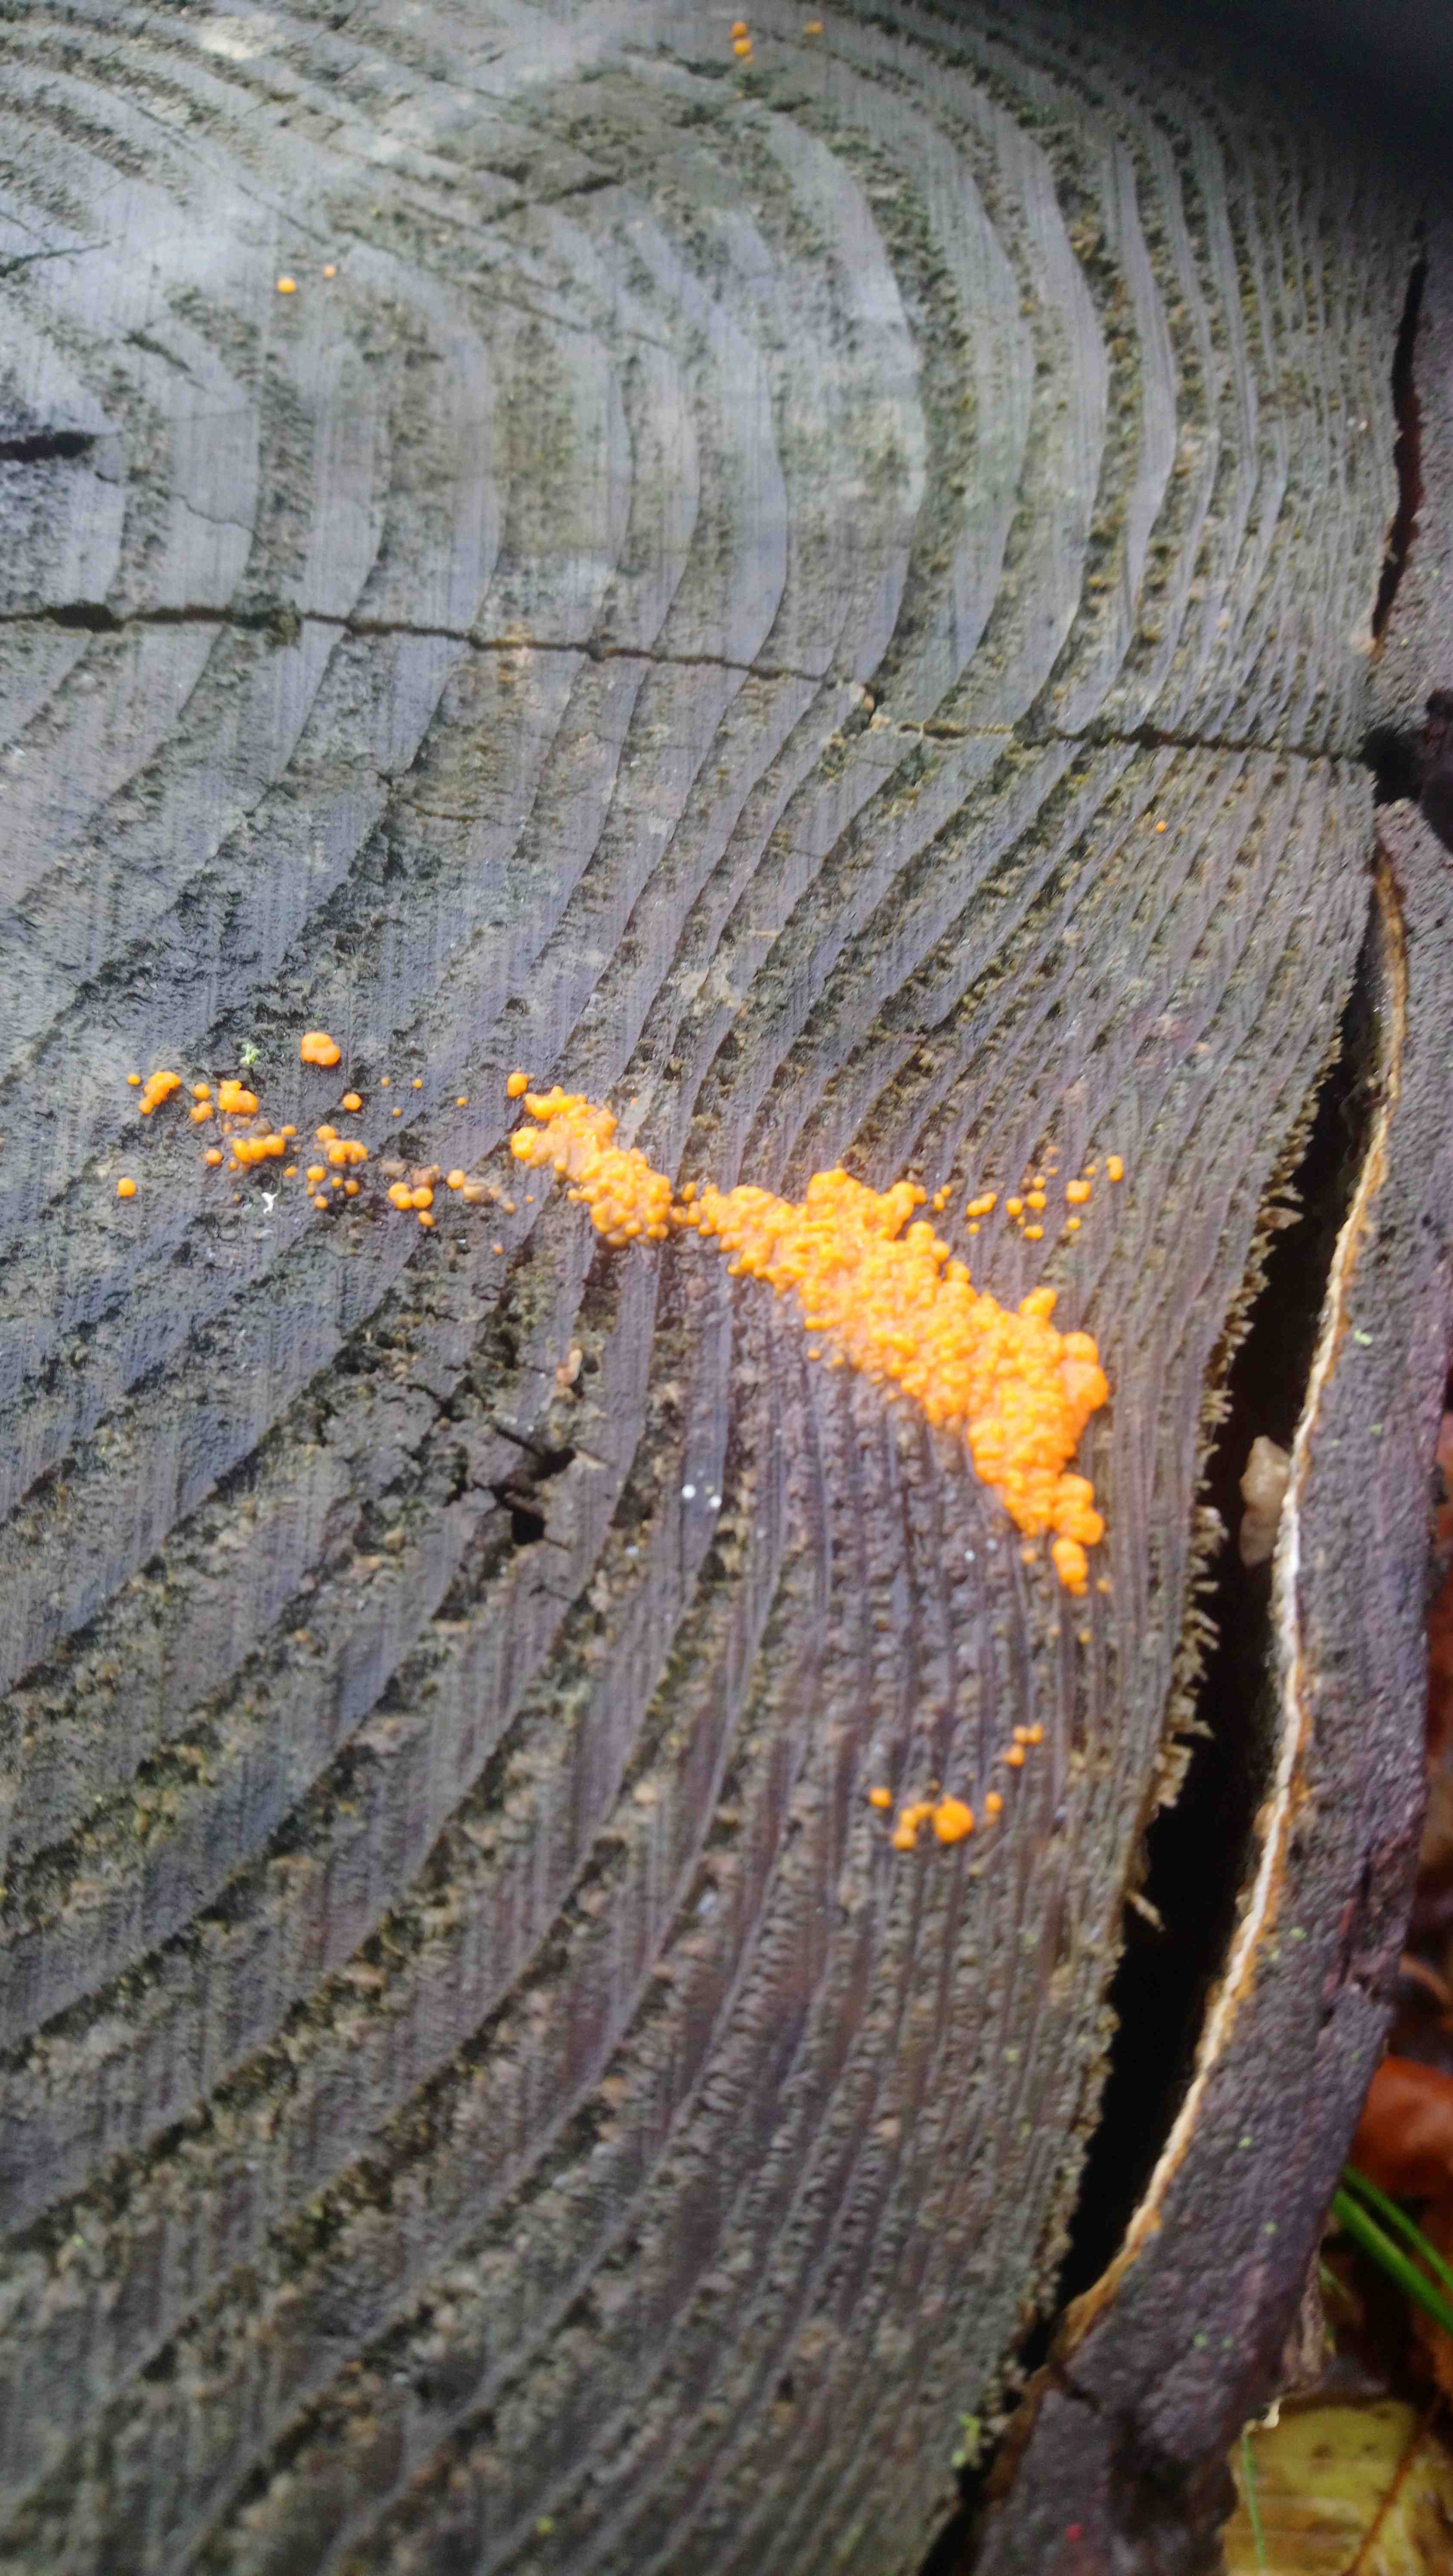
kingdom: Fungi
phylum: Basidiomycota
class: Dacrymycetes
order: Dacrymycetales
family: Dacrymycetaceae
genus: Dacrymyces
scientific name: Dacrymyces stillatus
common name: almindelig tåresvamp
